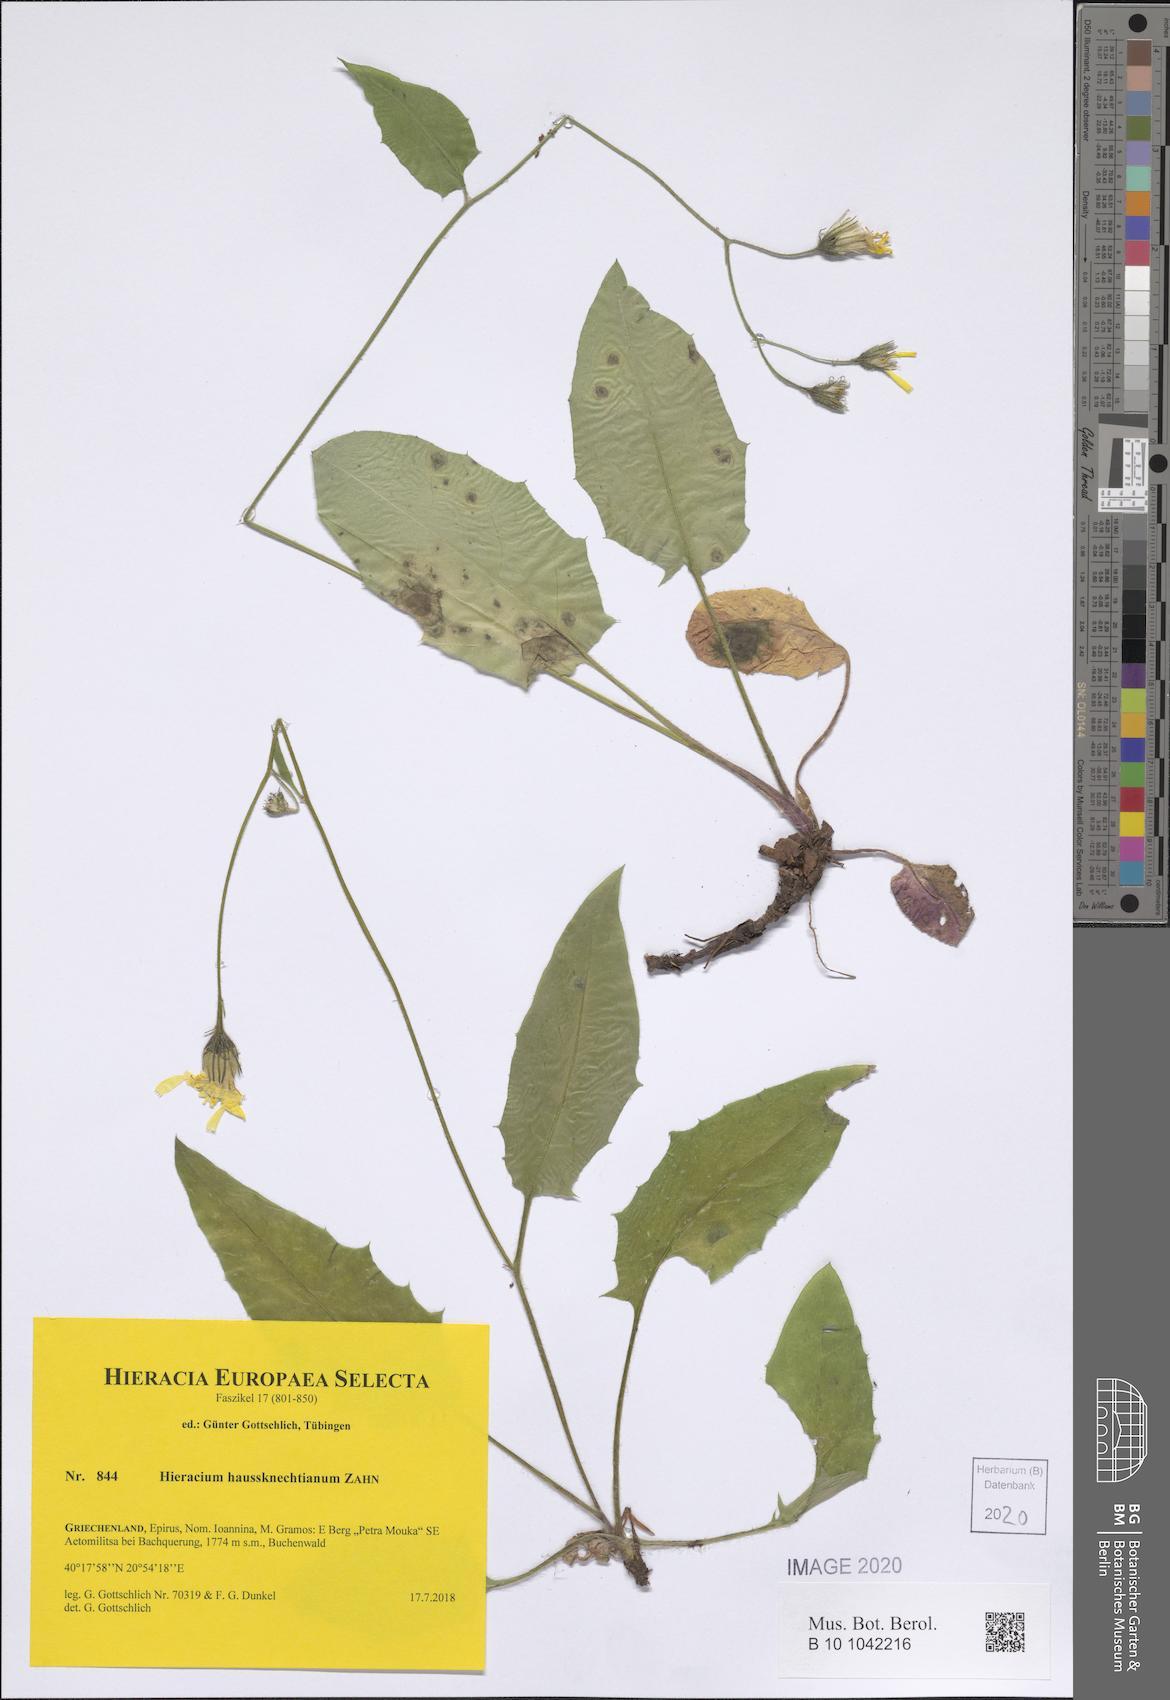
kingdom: Plantae
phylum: Tracheophyta
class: Magnoliopsida
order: Asterales
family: Asteraceae
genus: Hieracium
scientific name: Hieracium haussknechtianum
